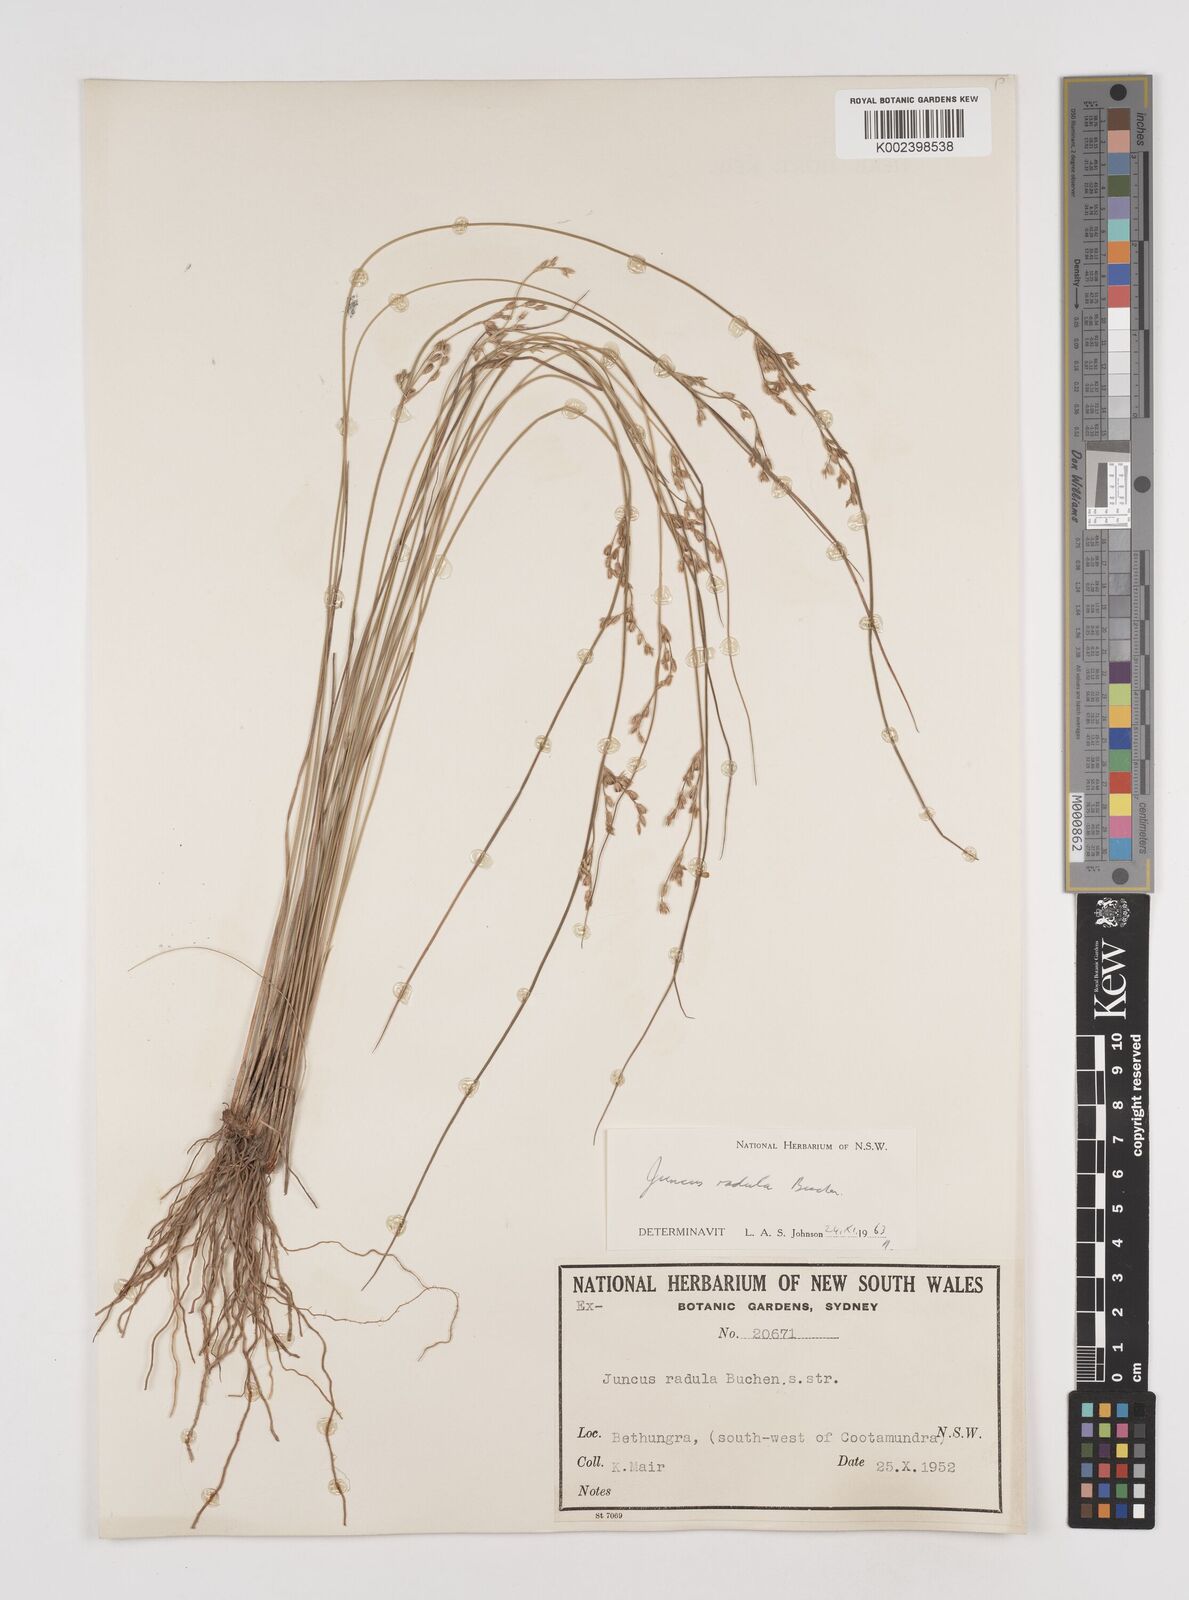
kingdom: Plantae
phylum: Tracheophyta
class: Liliopsida
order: Poales
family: Juncaceae
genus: Juncus
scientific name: Juncus radula
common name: Hoary rush
